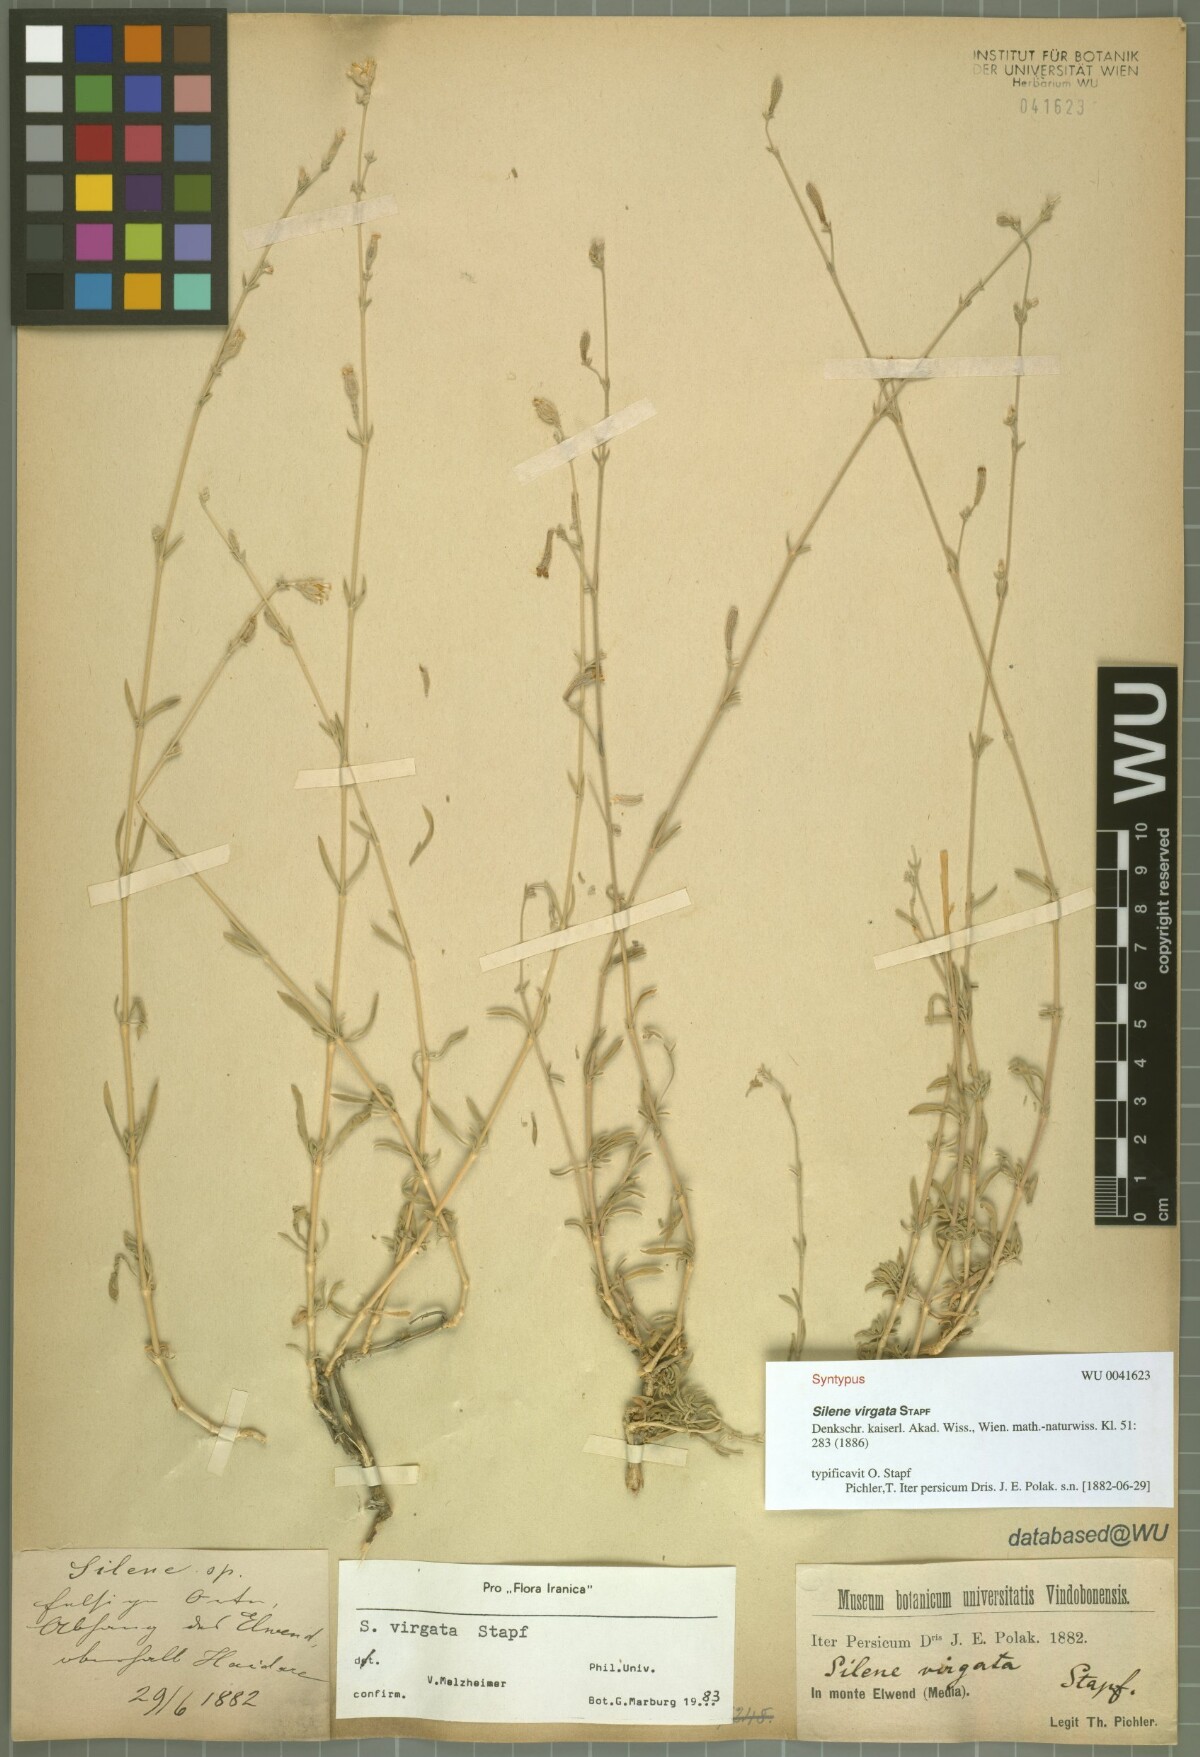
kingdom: Plantae
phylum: Tracheophyta
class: Magnoliopsida
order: Caryophyllales
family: Caryophyllaceae
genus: Silene
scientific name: Silene virgata
